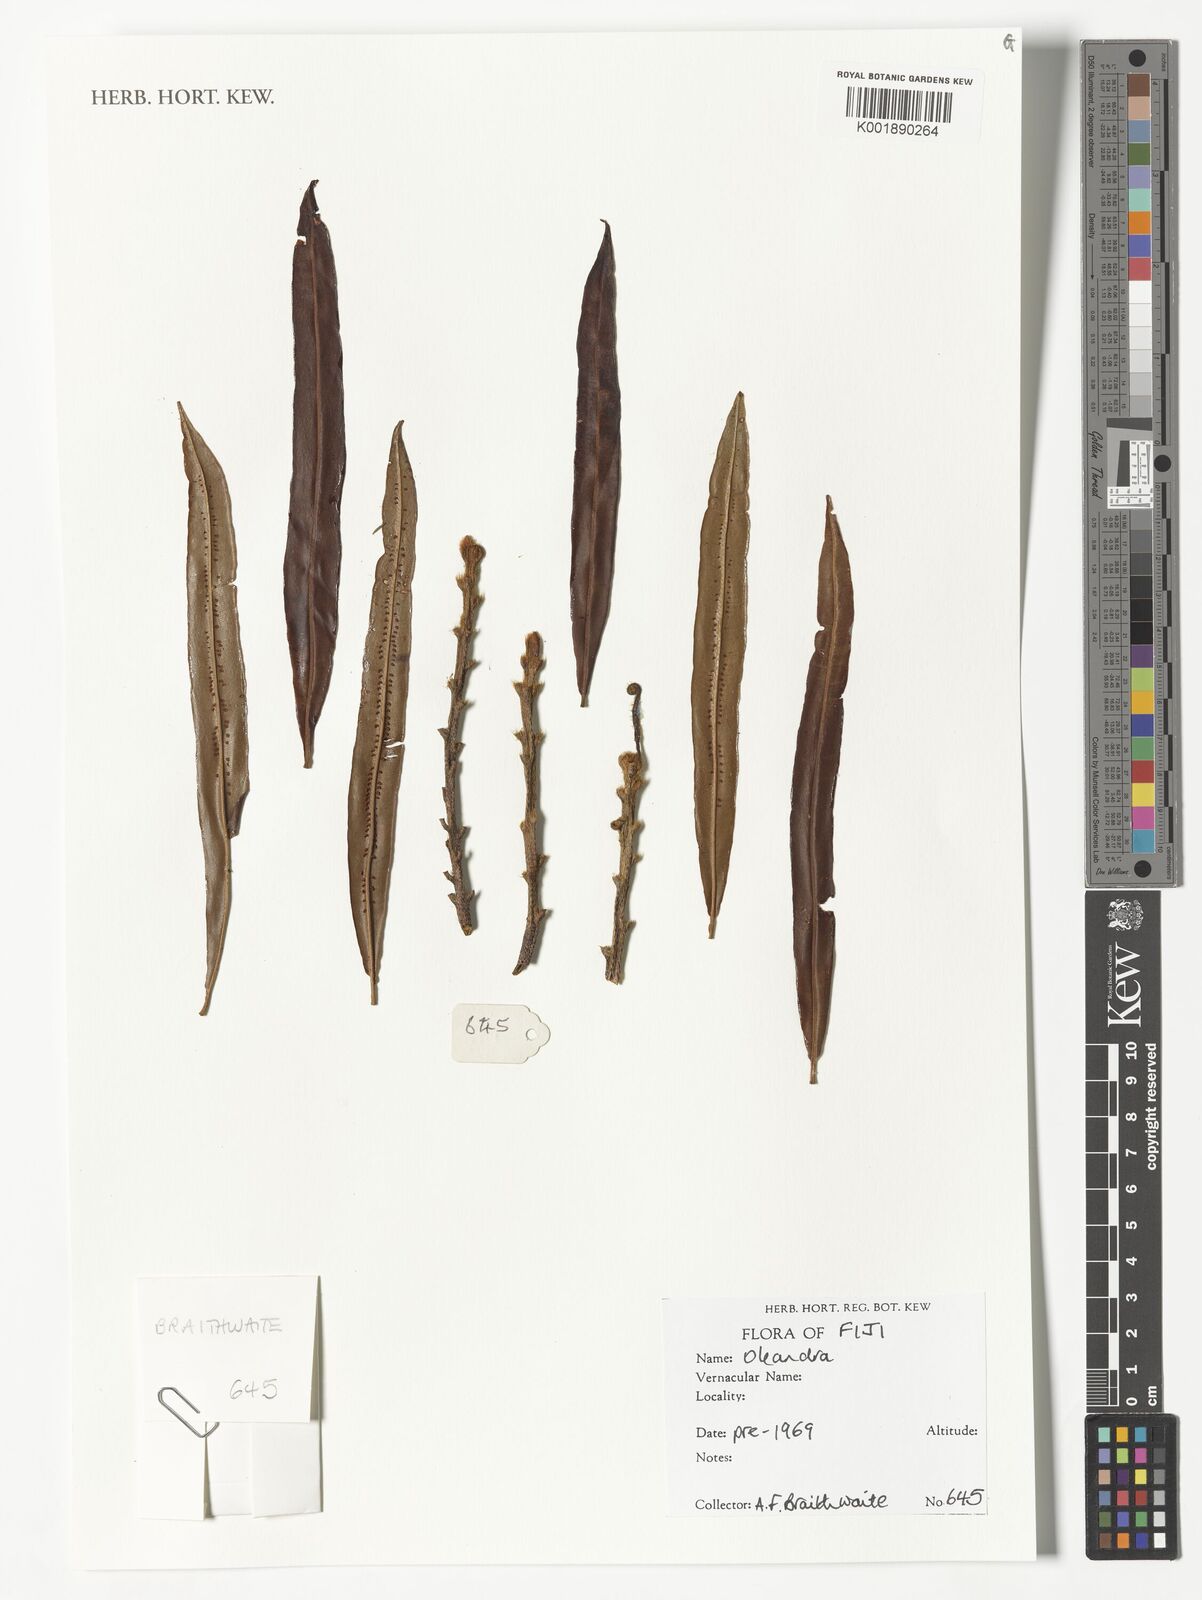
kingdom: Plantae
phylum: Tracheophyta
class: Polypodiopsida
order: Polypodiales
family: Oleandraceae
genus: Oleandra
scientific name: Oleandra
